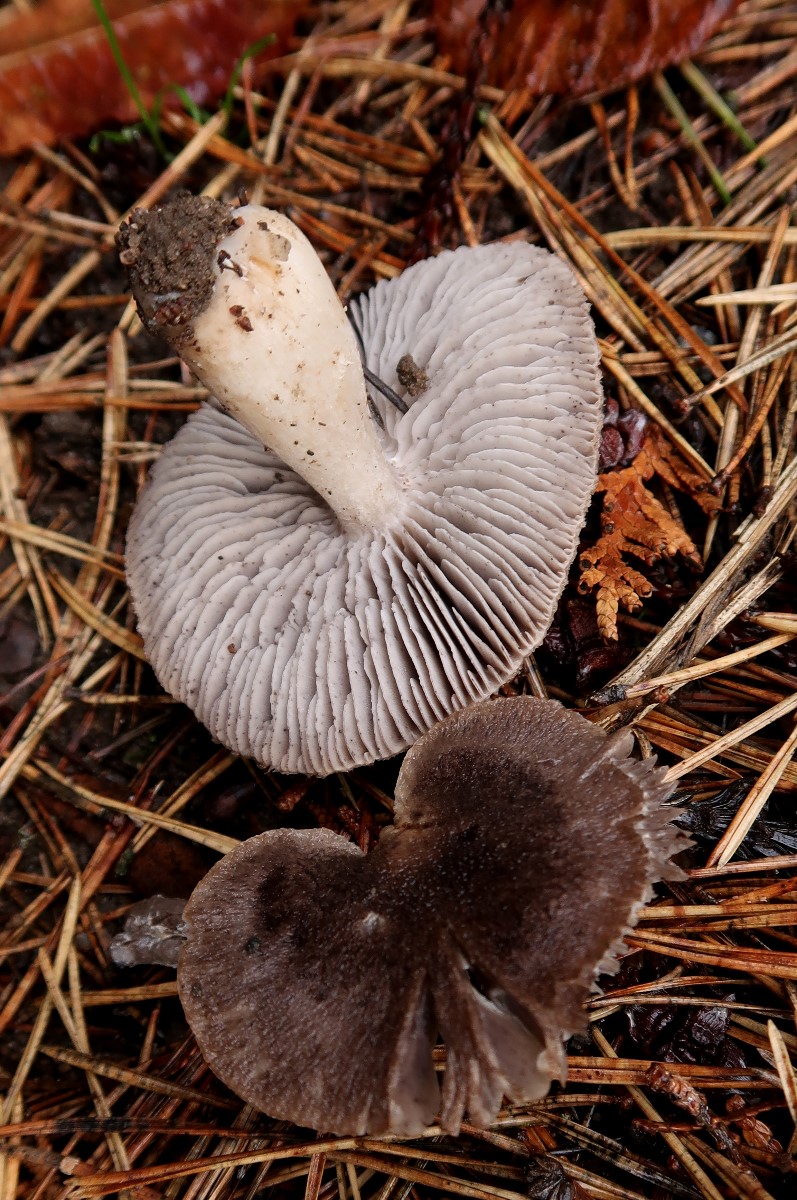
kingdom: Fungi
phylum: Basidiomycota
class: Agaricomycetes
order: Agaricales
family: Tricholomataceae
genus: Tricholoma
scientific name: Tricholoma terreum
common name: jordfarvet ridderhat
